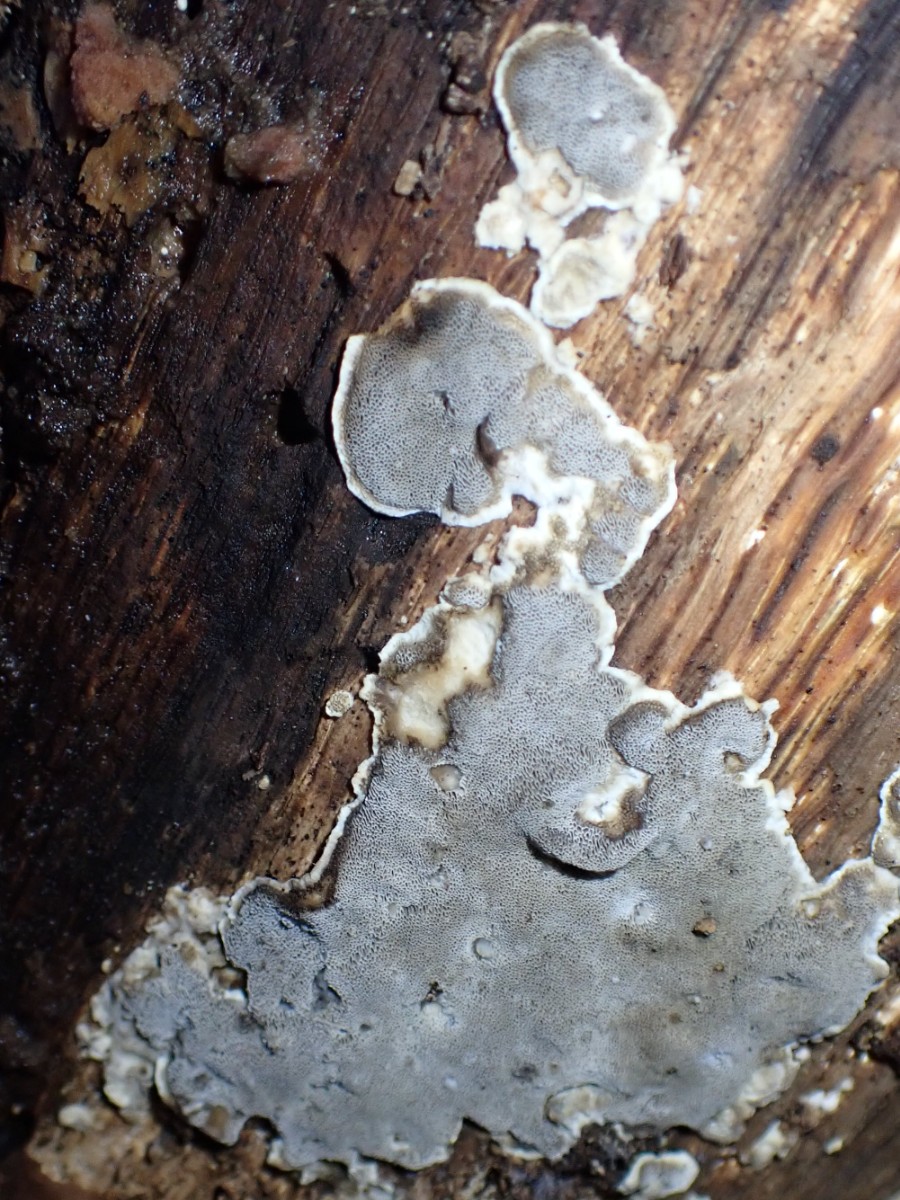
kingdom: Fungi
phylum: Basidiomycota
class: Agaricomycetes
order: Polyporales
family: Phanerochaetaceae
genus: Bjerkandera
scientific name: Bjerkandera adusta
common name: sveden sodporesvamp
